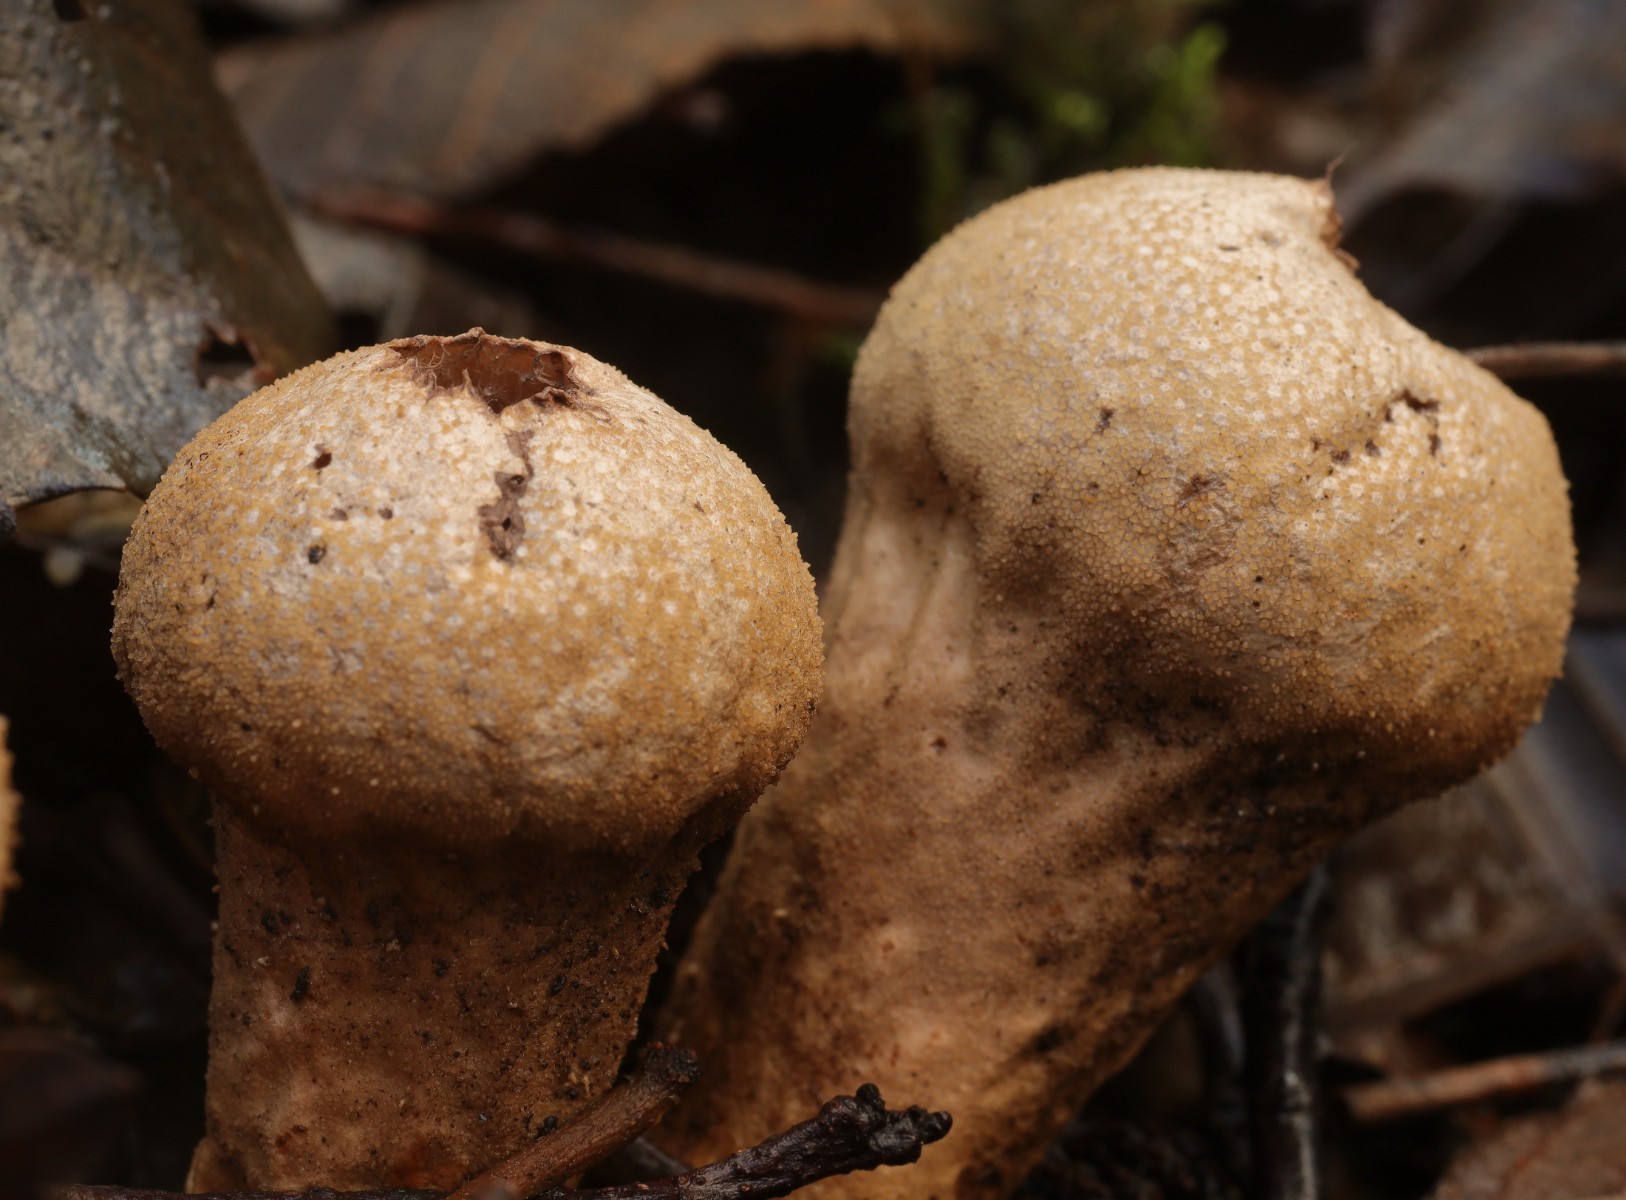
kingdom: Fungi
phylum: Basidiomycota
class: Agaricomycetes
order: Agaricales
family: Lycoperdaceae
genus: Lycoperdon
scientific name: Lycoperdon perlatum
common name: krystal-støvbold
